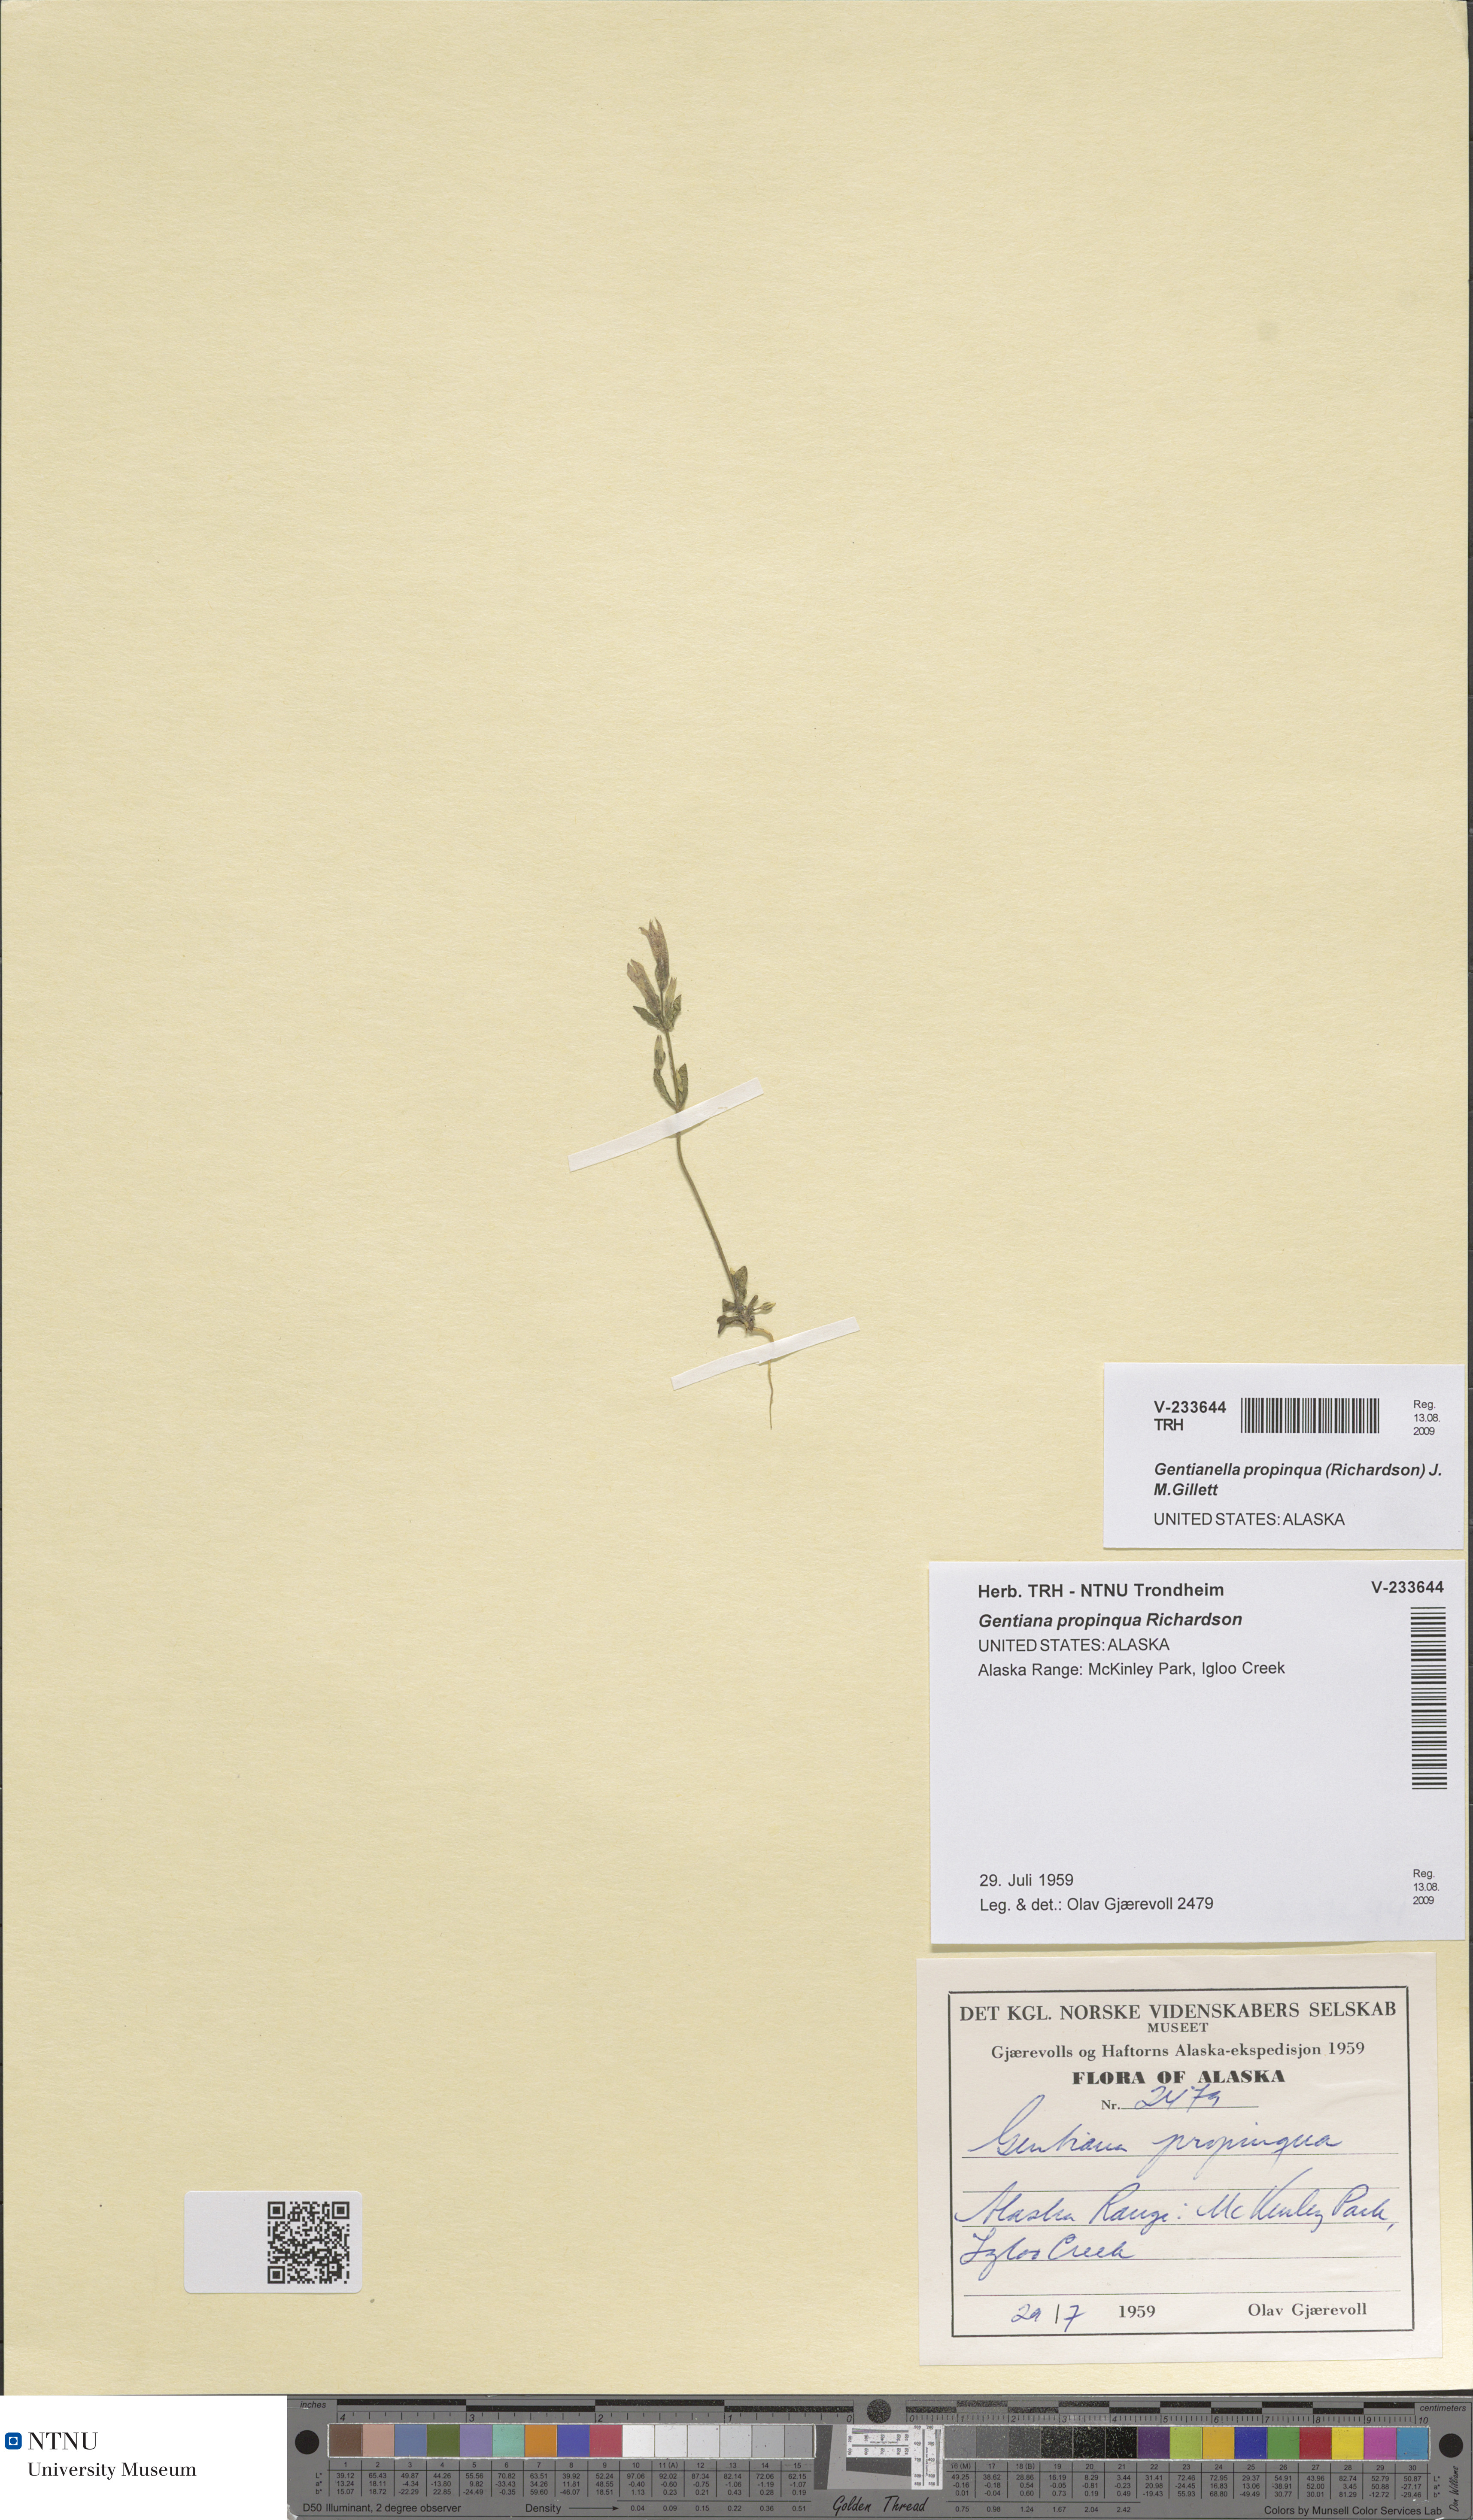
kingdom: Plantae
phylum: Tracheophyta
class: Magnoliopsida
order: Gentianales
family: Gentianaceae
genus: Gentianella
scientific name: Gentianella propinqua
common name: Four-parted dwarf-gentian
